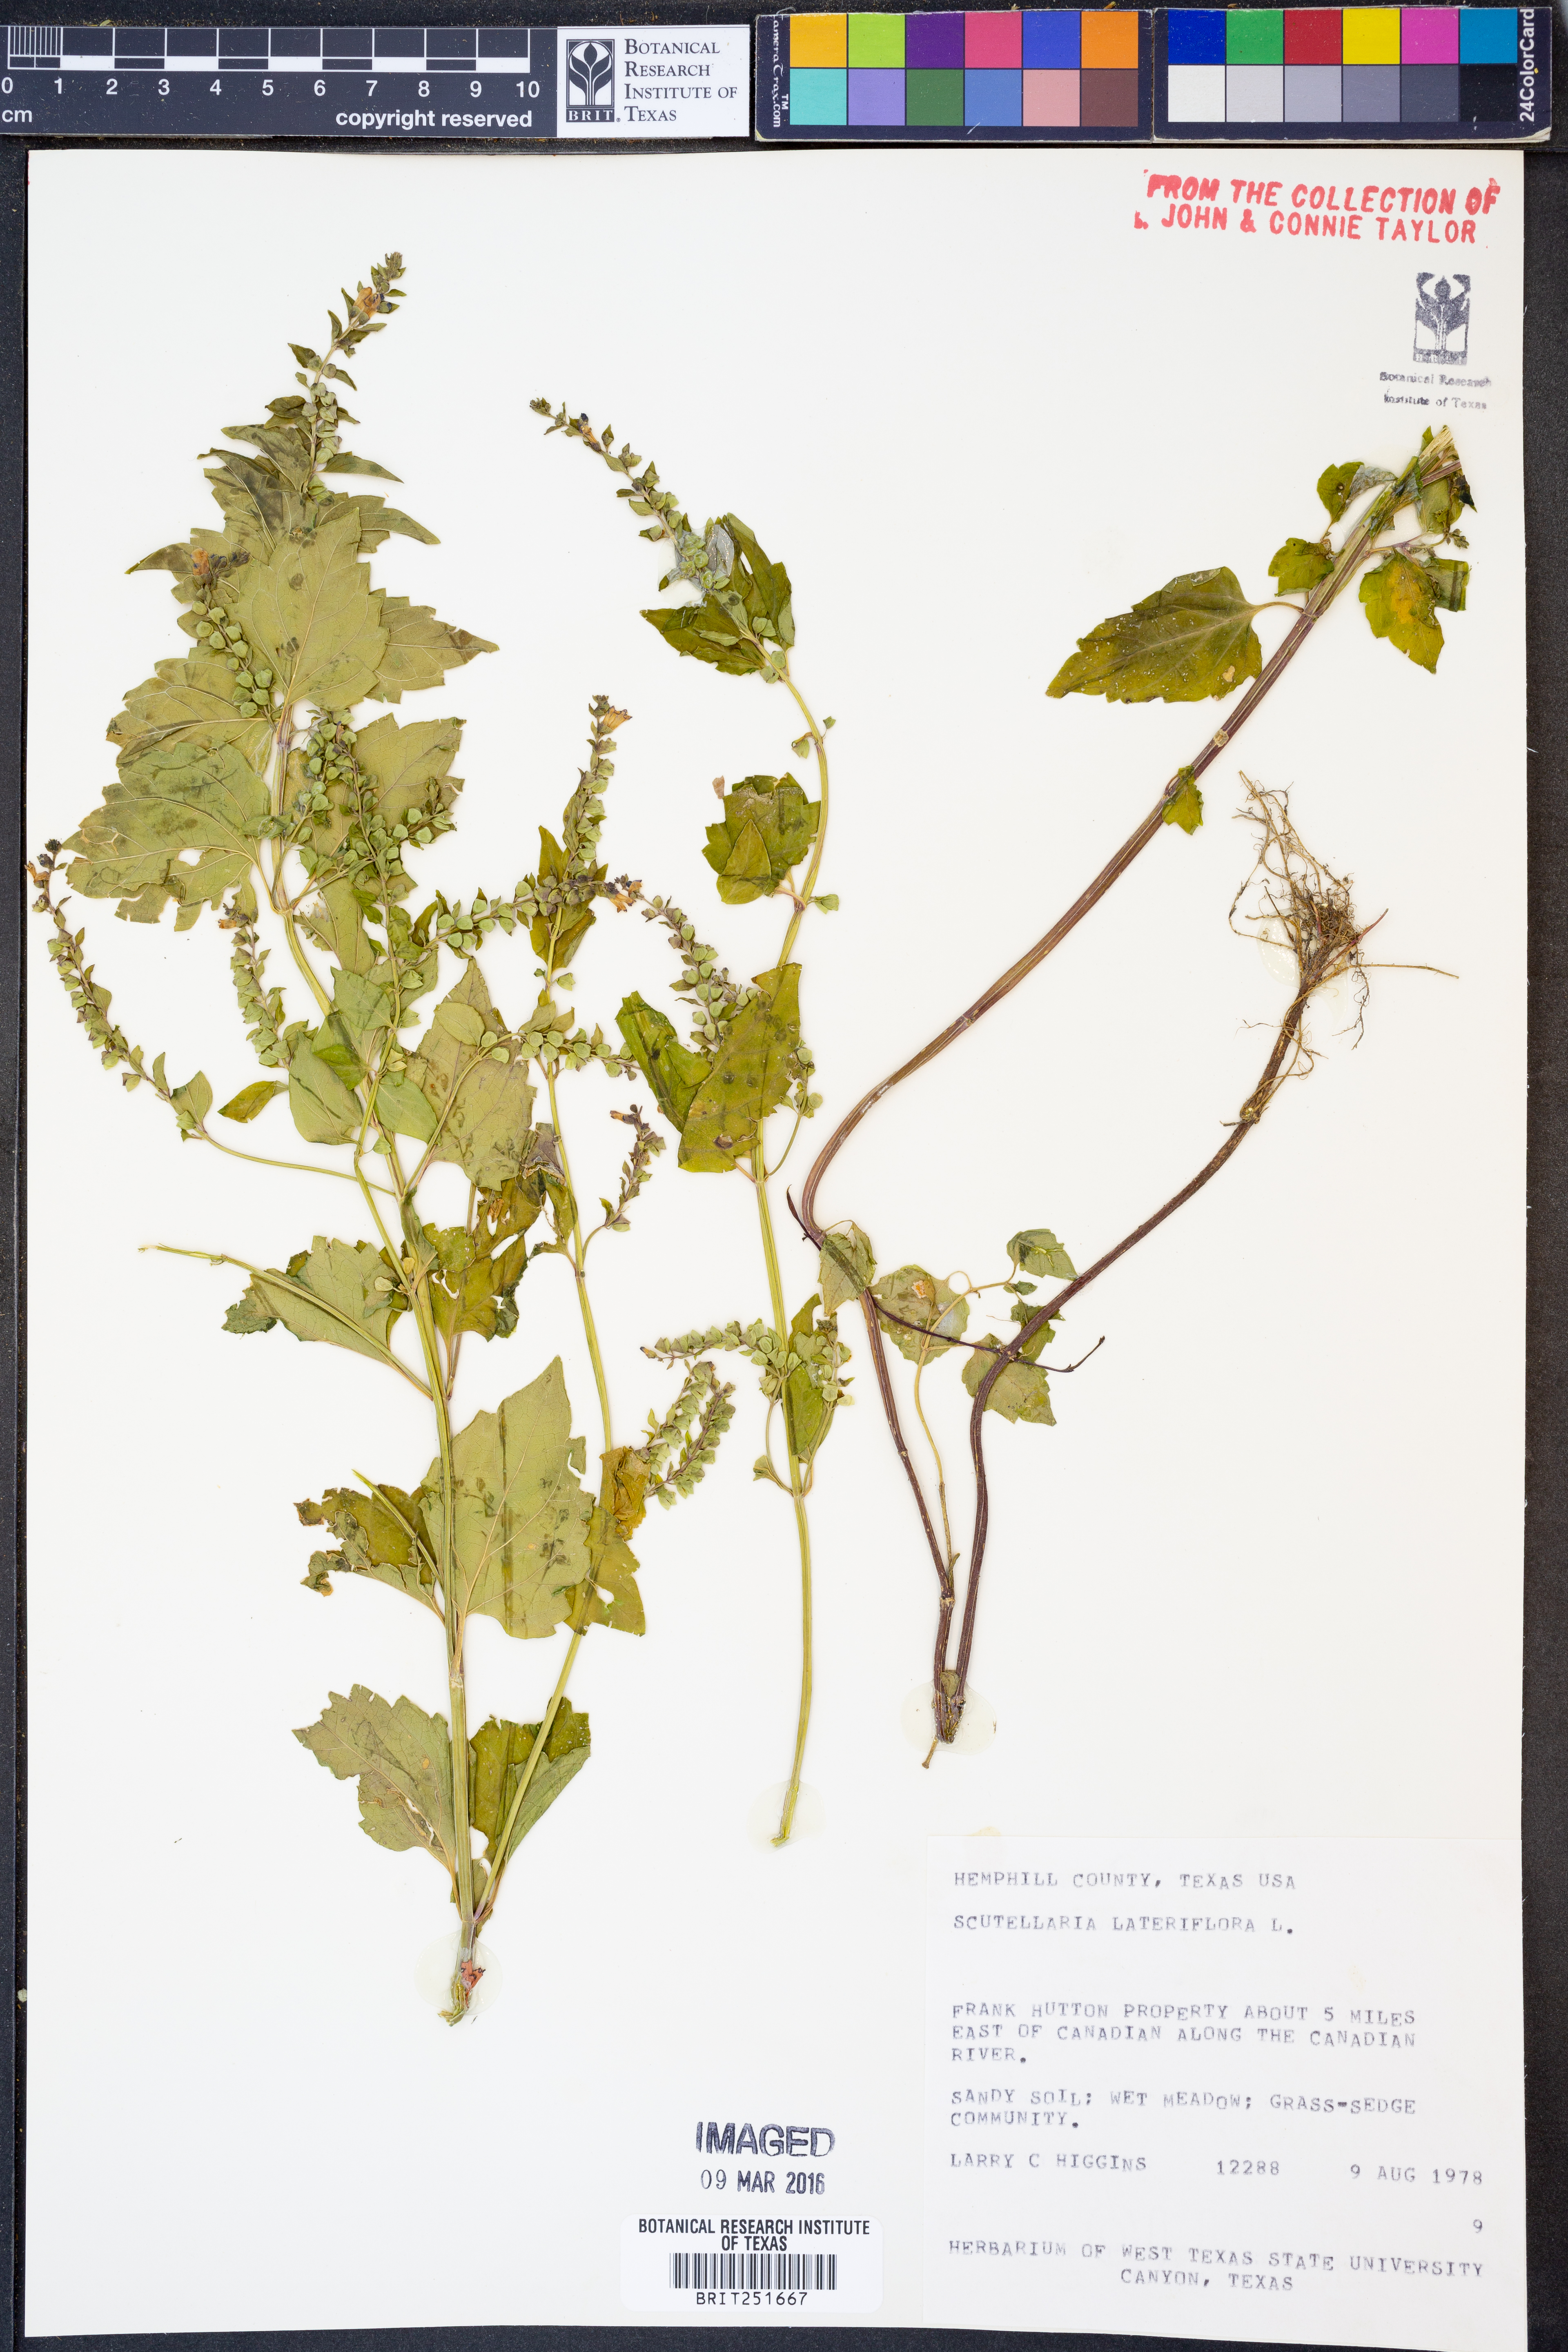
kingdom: Plantae
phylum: Tracheophyta
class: Magnoliopsida
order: Lamiales
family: Lamiaceae
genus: Scutellaria
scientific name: Scutellaria lateriflora
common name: Blue skullcap
